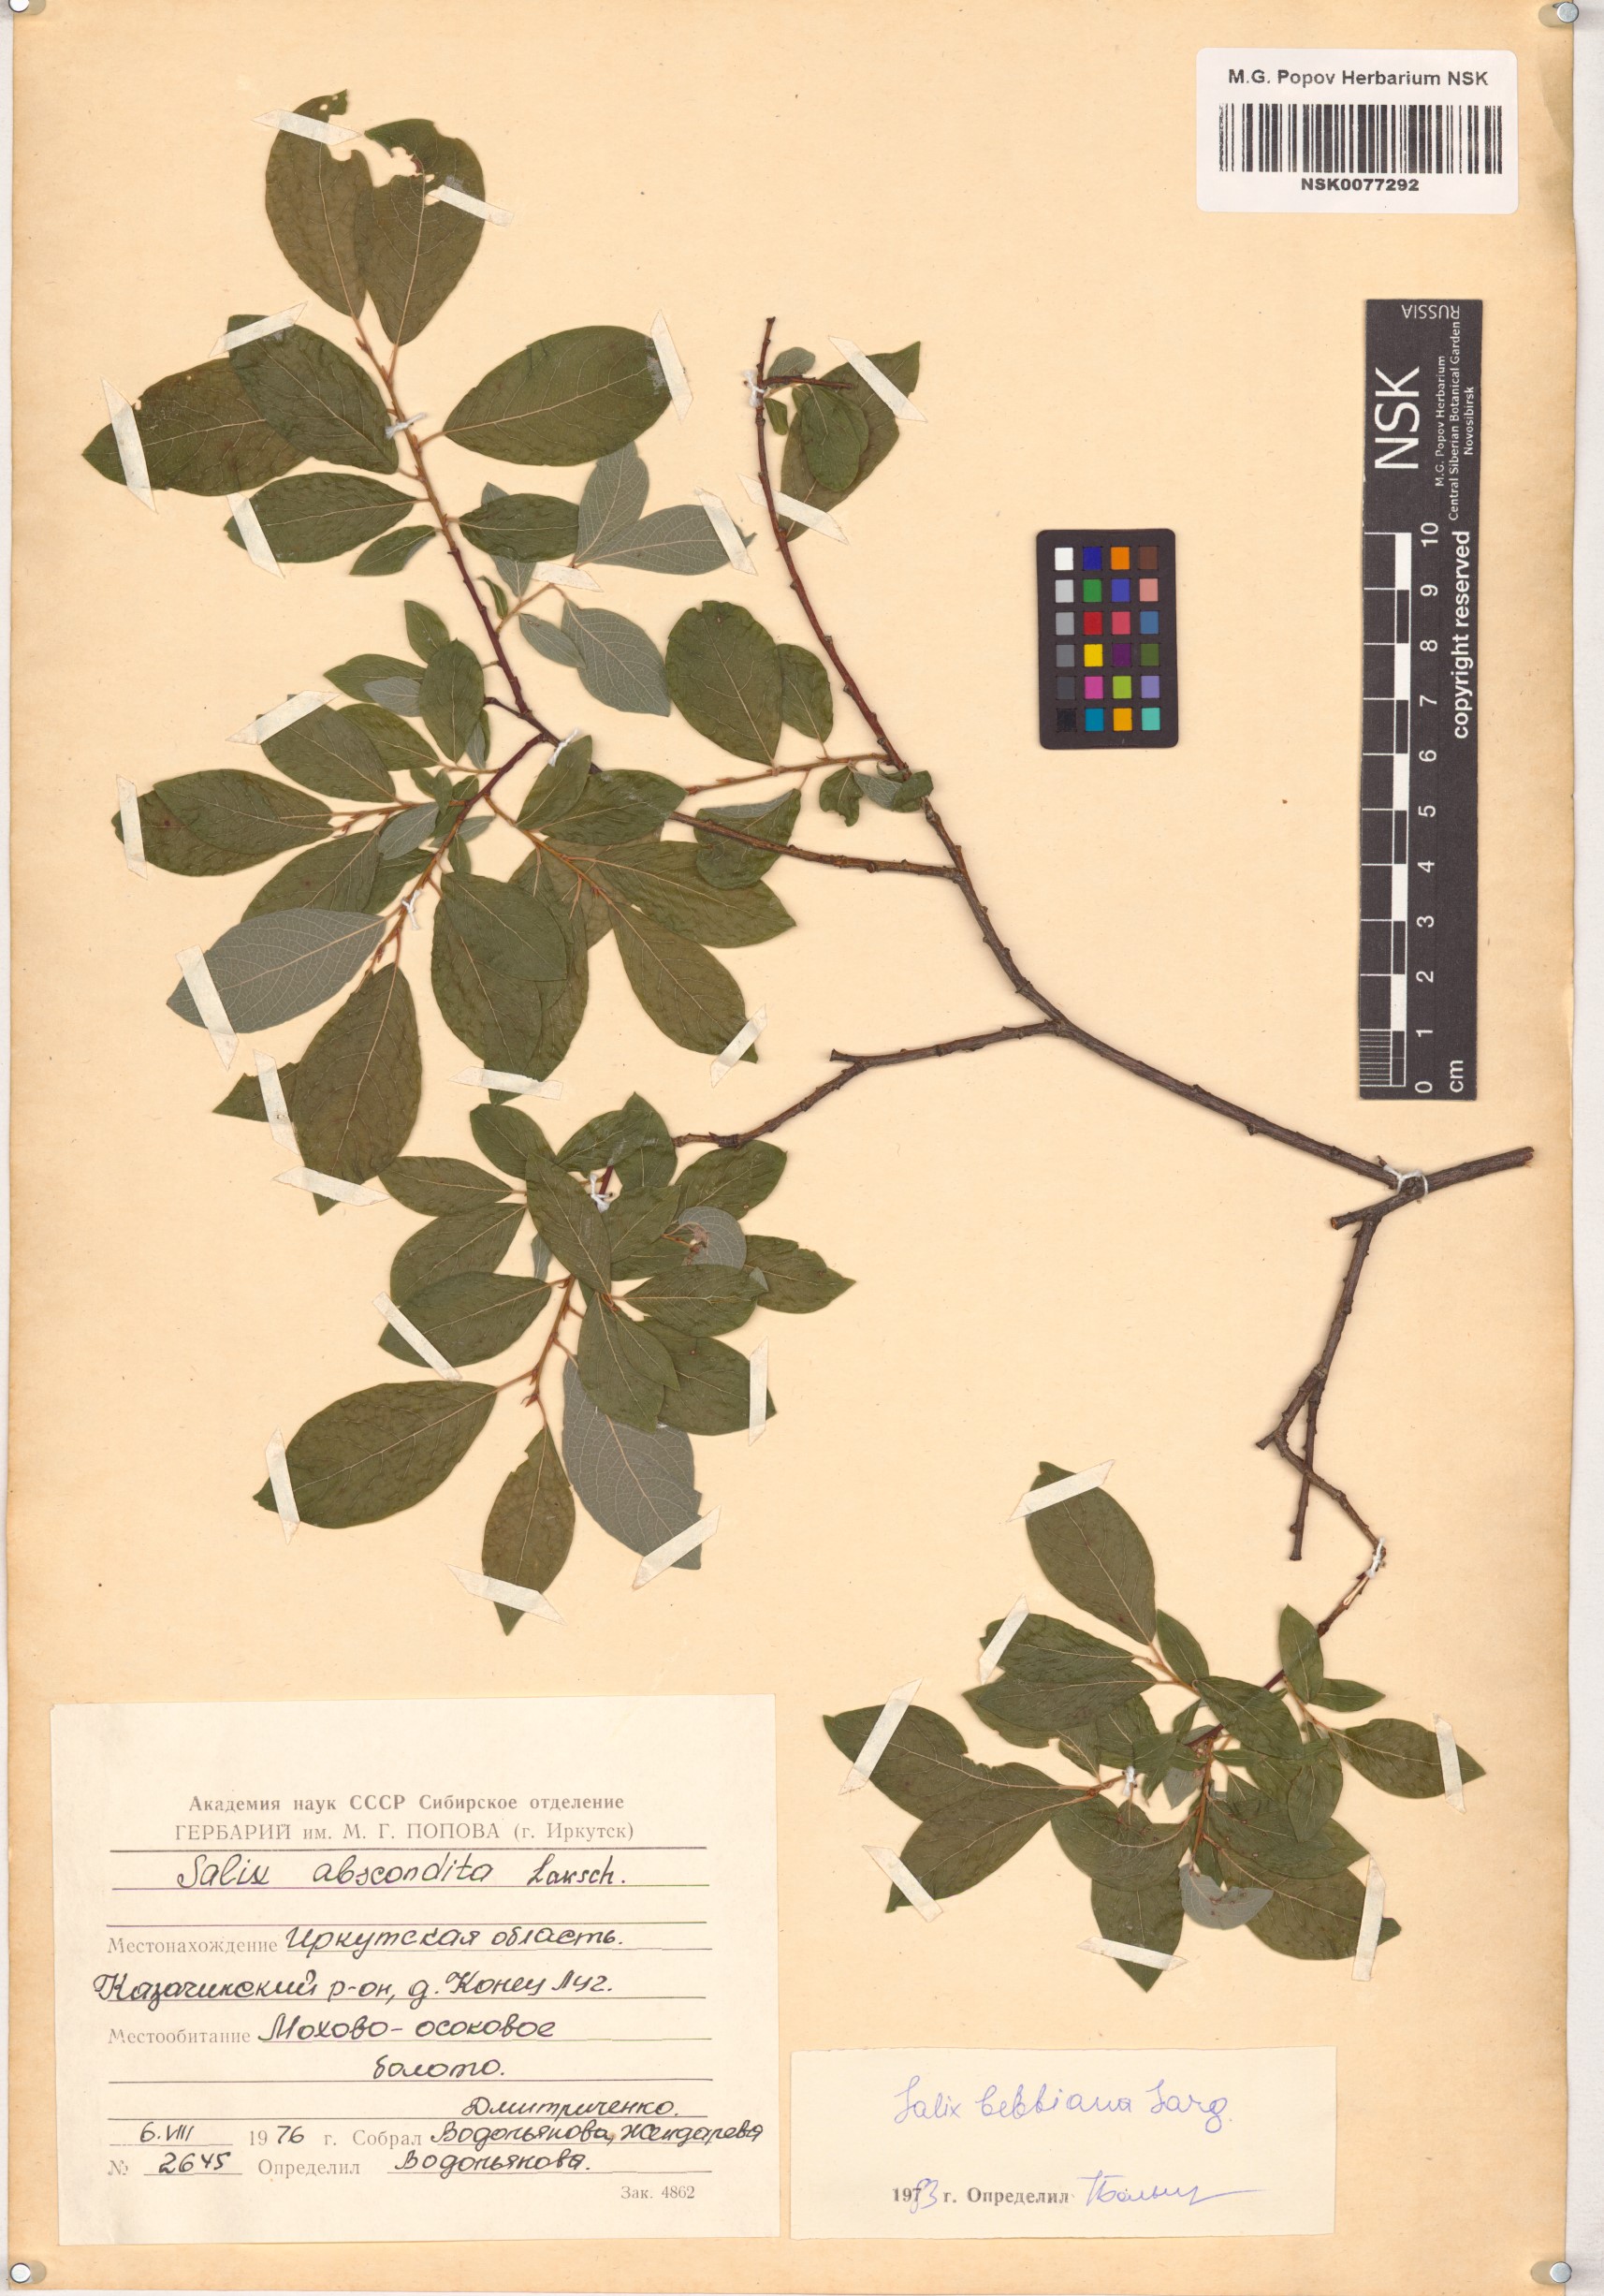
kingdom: Plantae
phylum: Tracheophyta
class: Magnoliopsida
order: Malpighiales
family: Salicaceae
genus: Salix
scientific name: Salix bebbiana
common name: Bebb's willow
